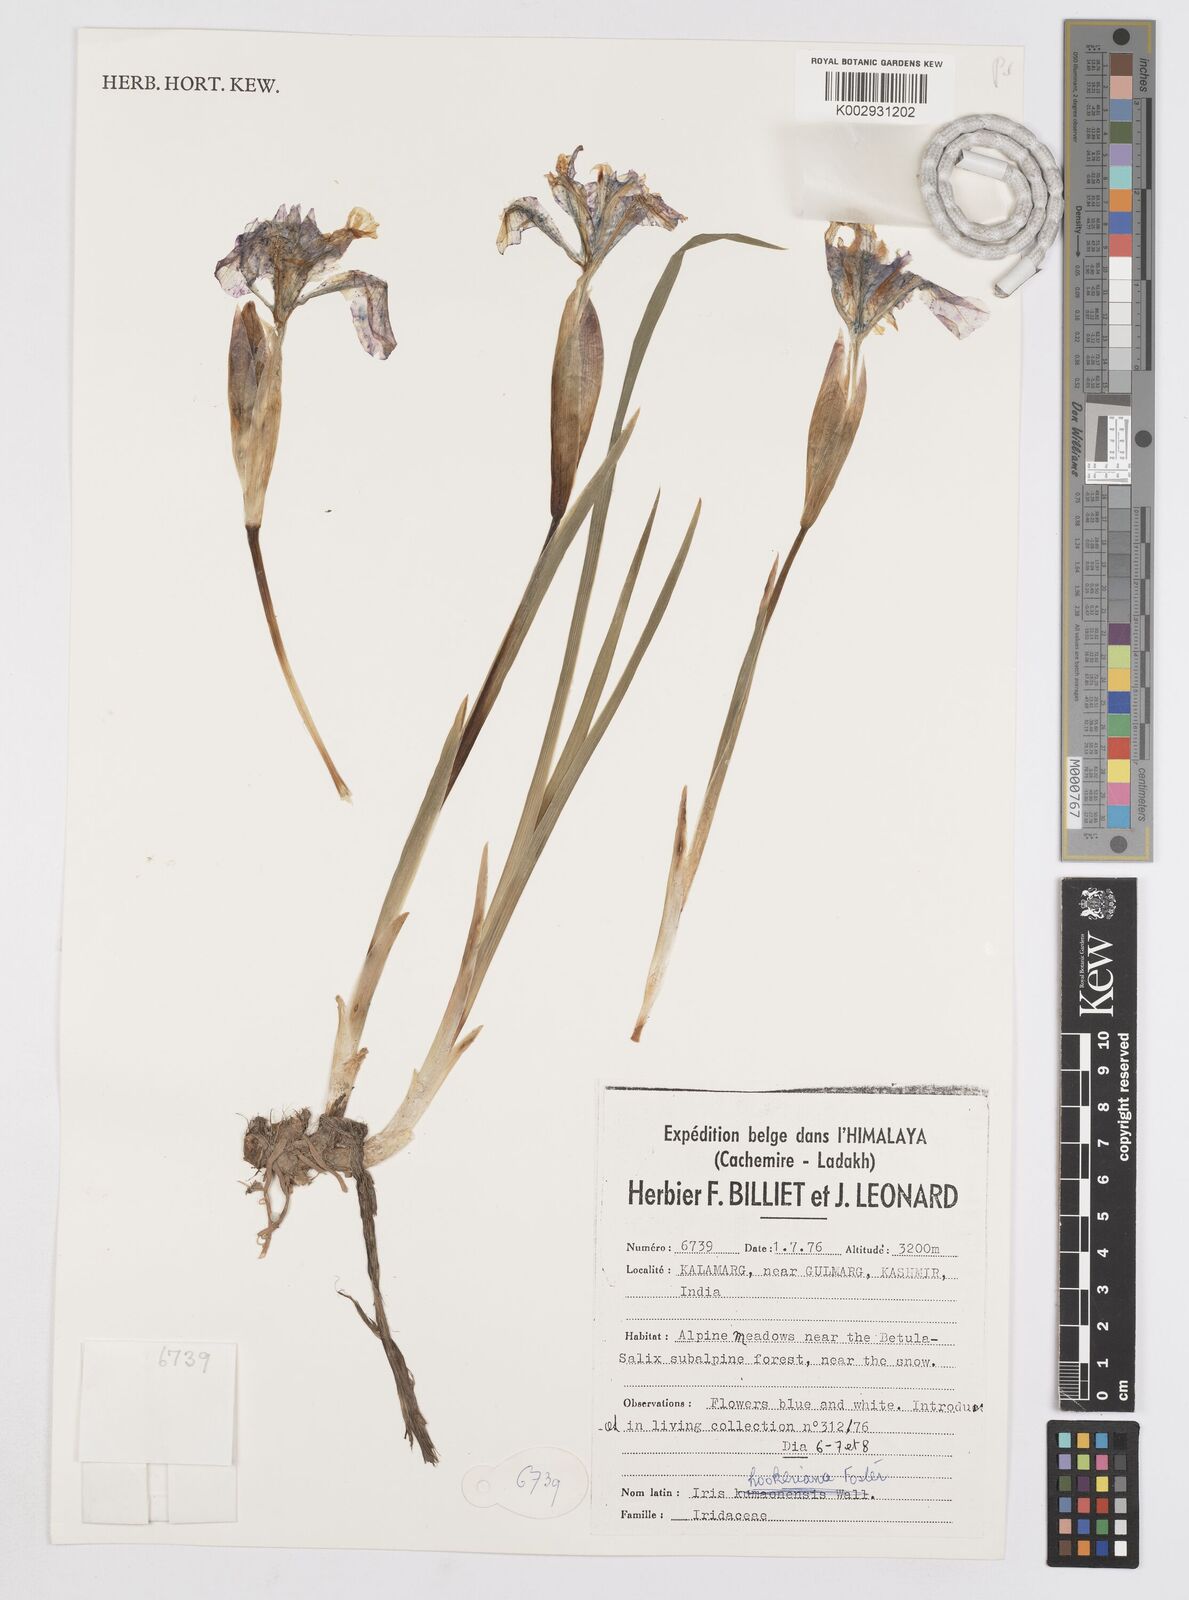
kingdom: Plantae
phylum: Tracheophyta
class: Liliopsida
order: Asparagales
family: Iridaceae
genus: Iris
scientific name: Iris hookeriana
